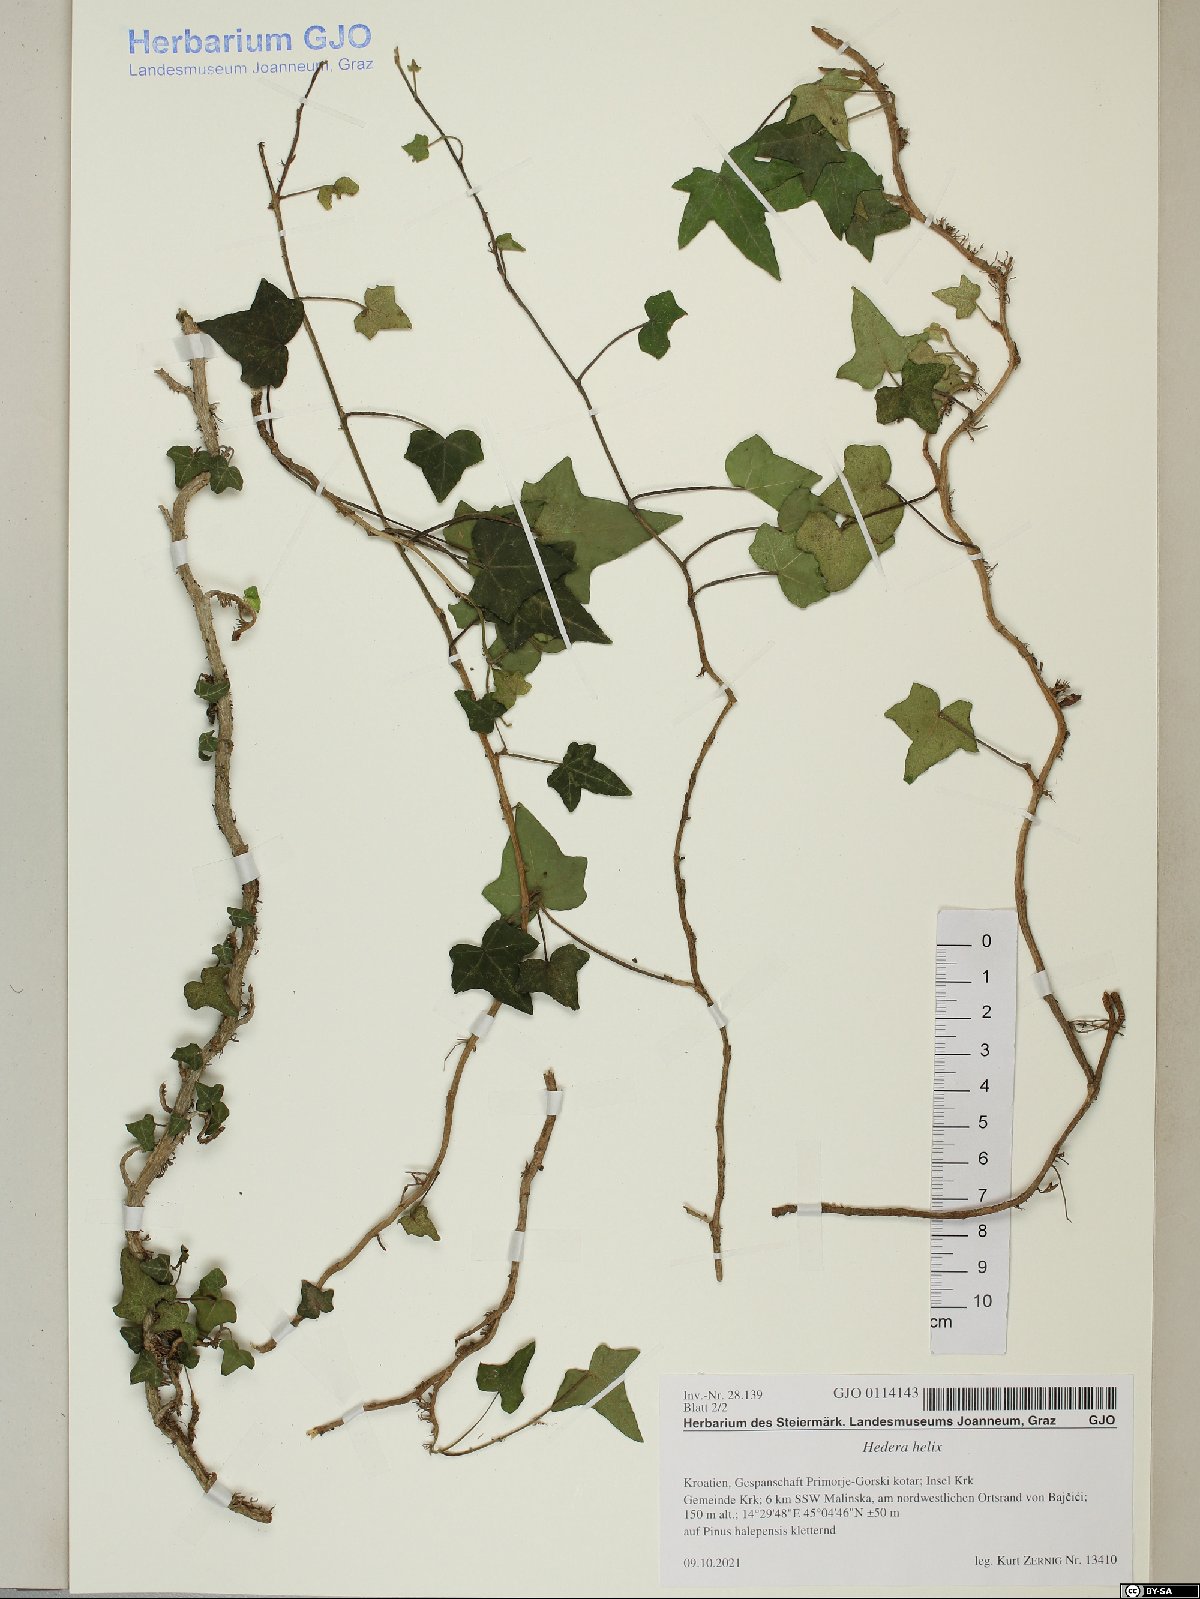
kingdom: Plantae
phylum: Tracheophyta
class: Magnoliopsida
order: Apiales
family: Araliaceae
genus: Hedera
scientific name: Hedera helix
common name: Ivy
